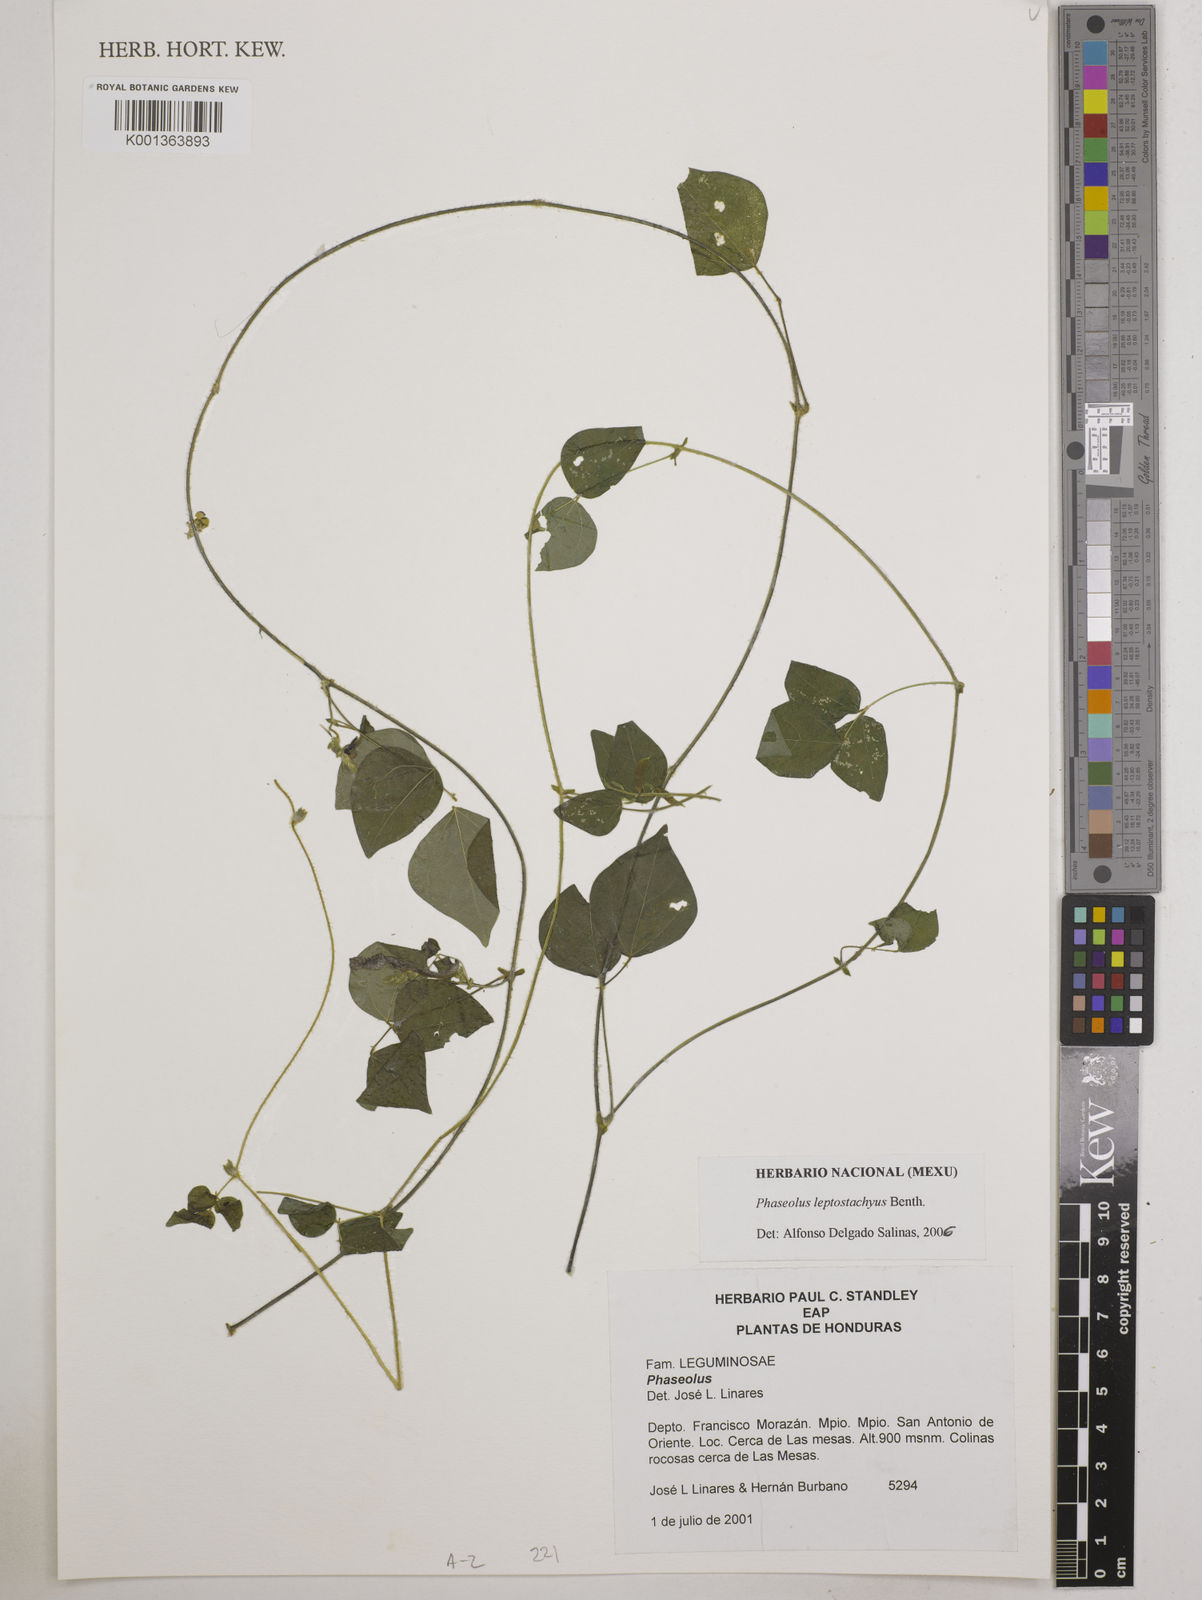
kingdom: Plantae
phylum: Tracheophyta
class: Magnoliopsida
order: Fabales
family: Fabaceae
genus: Phaseolus
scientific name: Phaseolus leptostachyus
